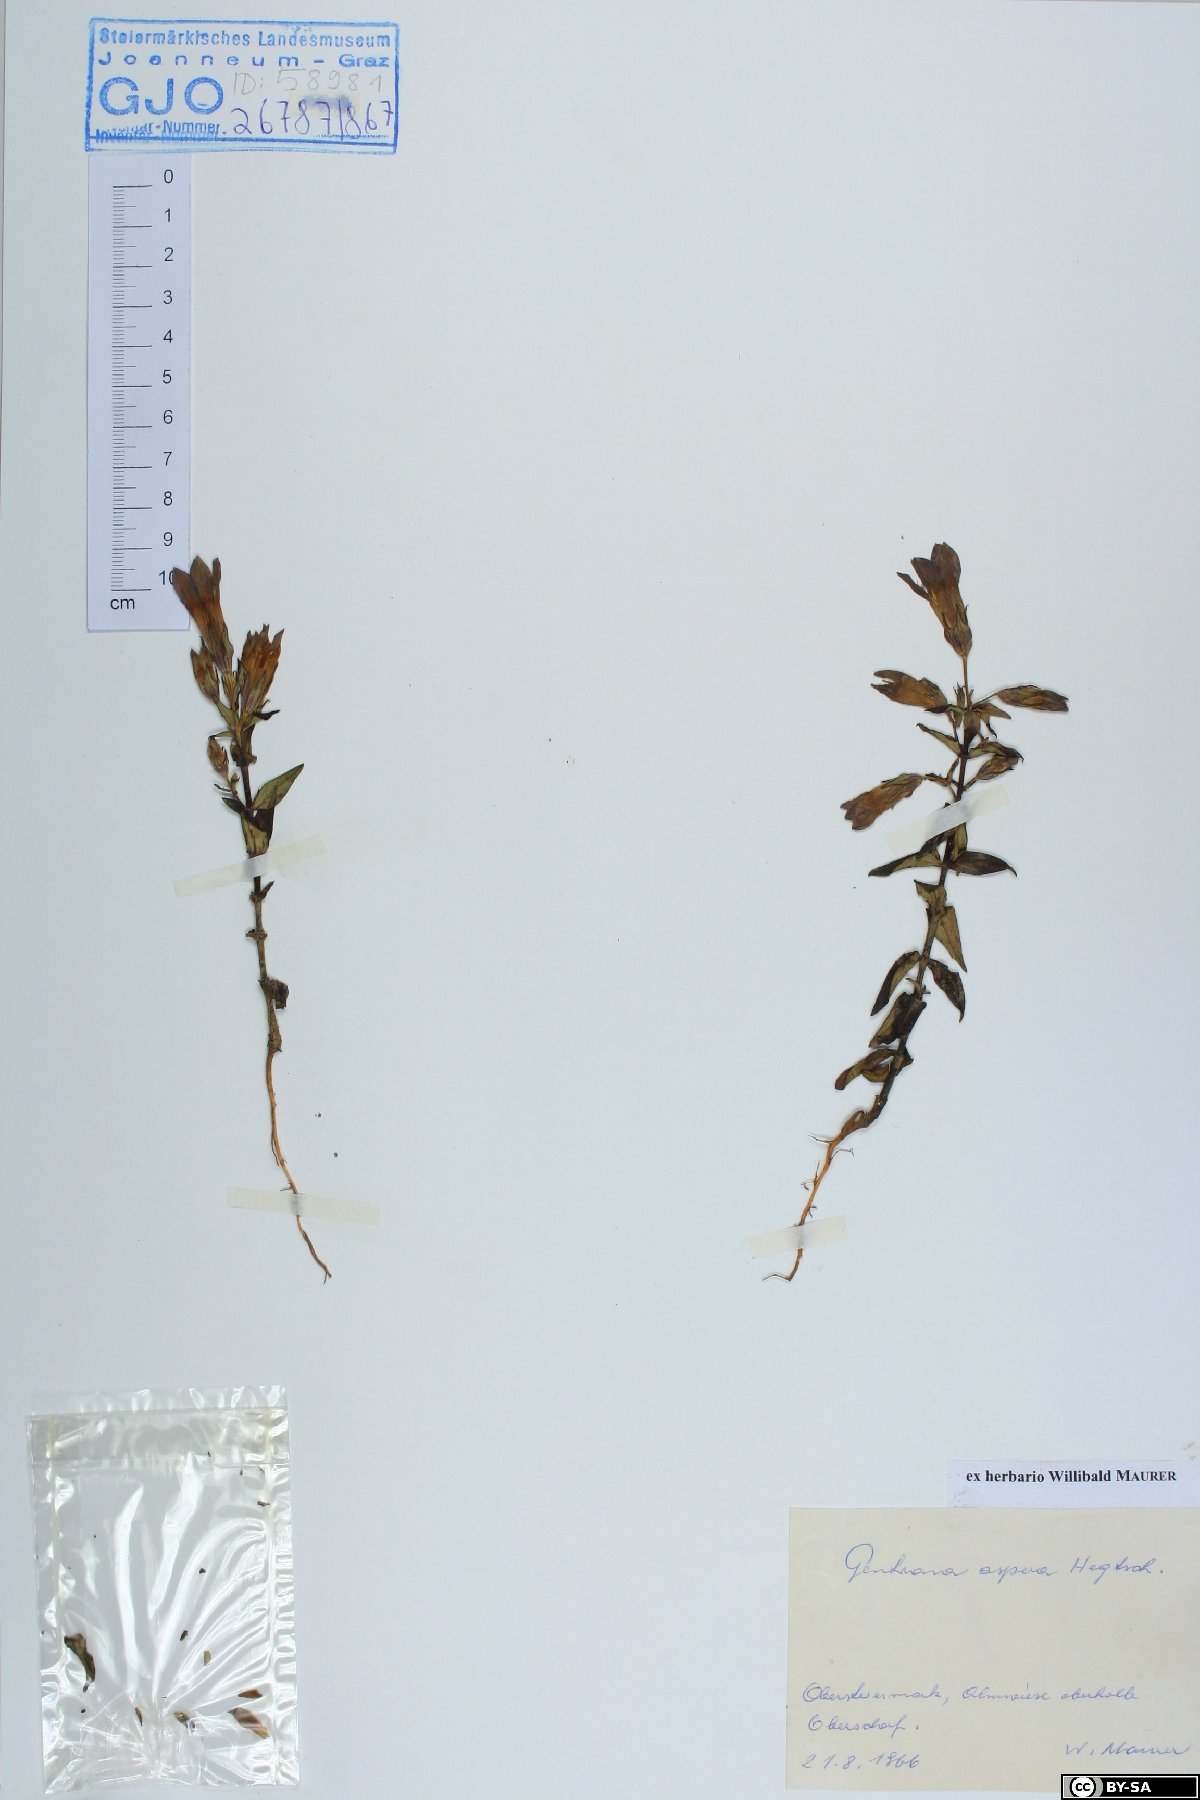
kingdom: Plantae
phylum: Tracheophyta
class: Magnoliopsida
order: Gentianales
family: Gentianaceae
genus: Gentianella
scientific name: Gentianella obtusifolia
